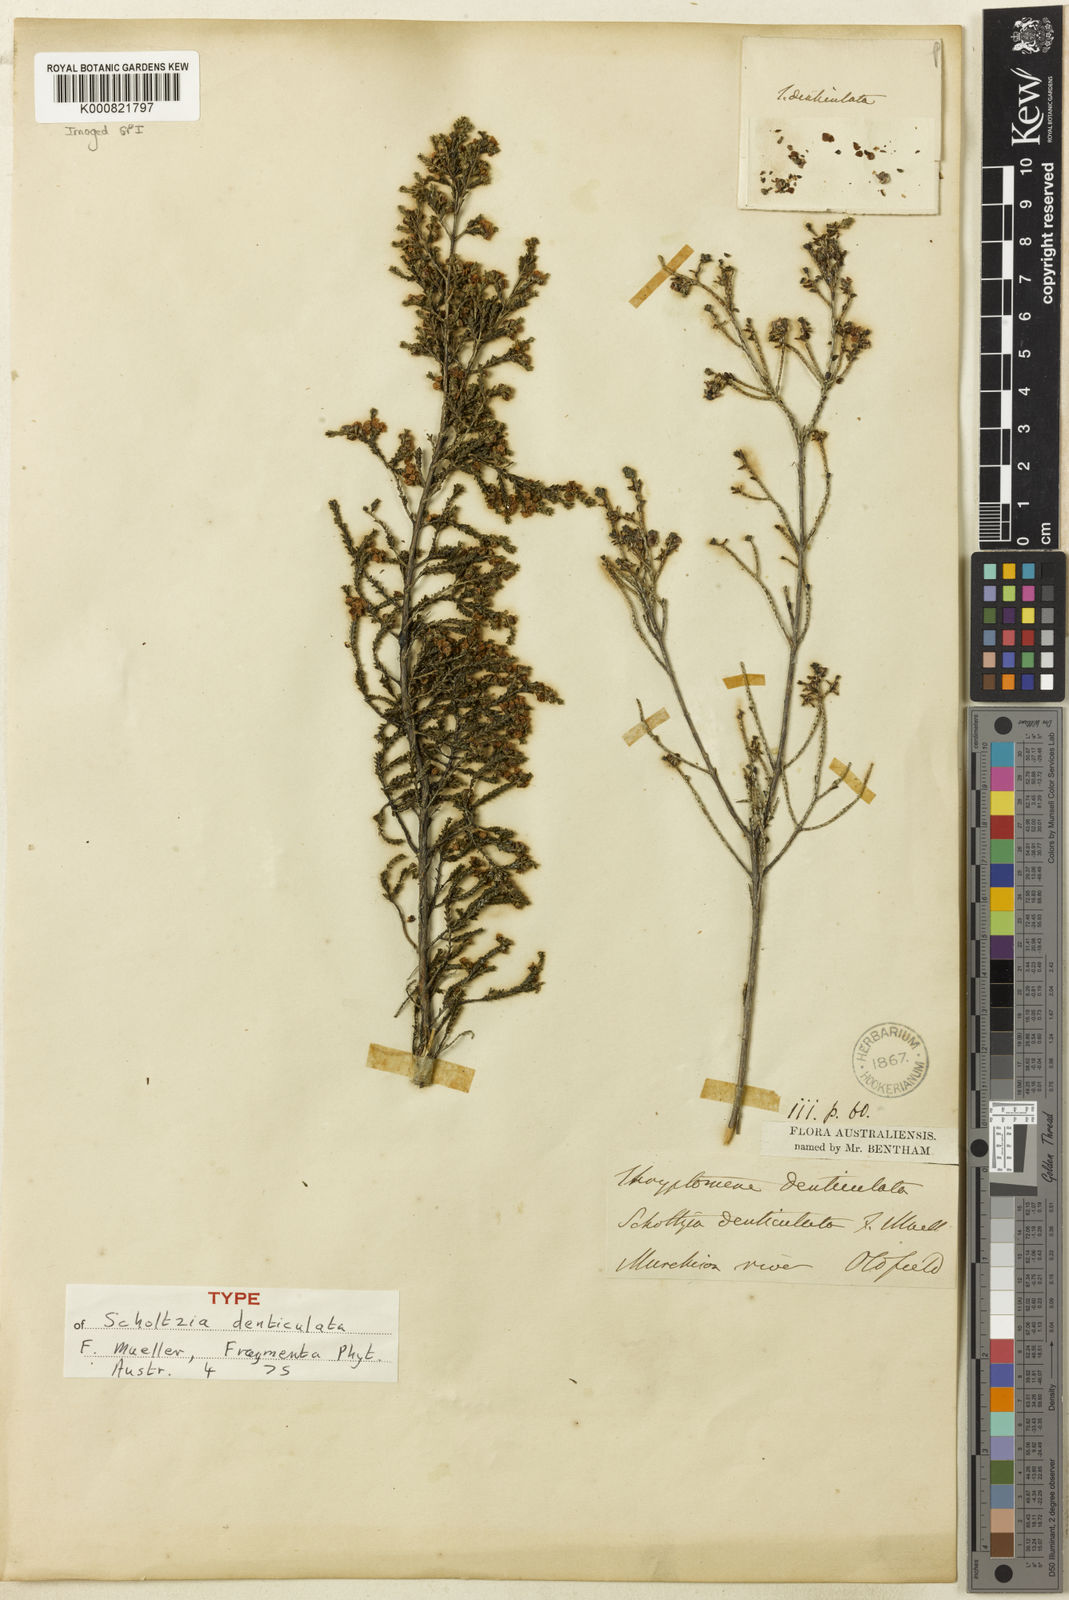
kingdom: Plantae
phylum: Tracheophyta
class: Magnoliopsida
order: Myrtales
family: Myrtaceae
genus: Thryptomene
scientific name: Thryptomene denticulata
